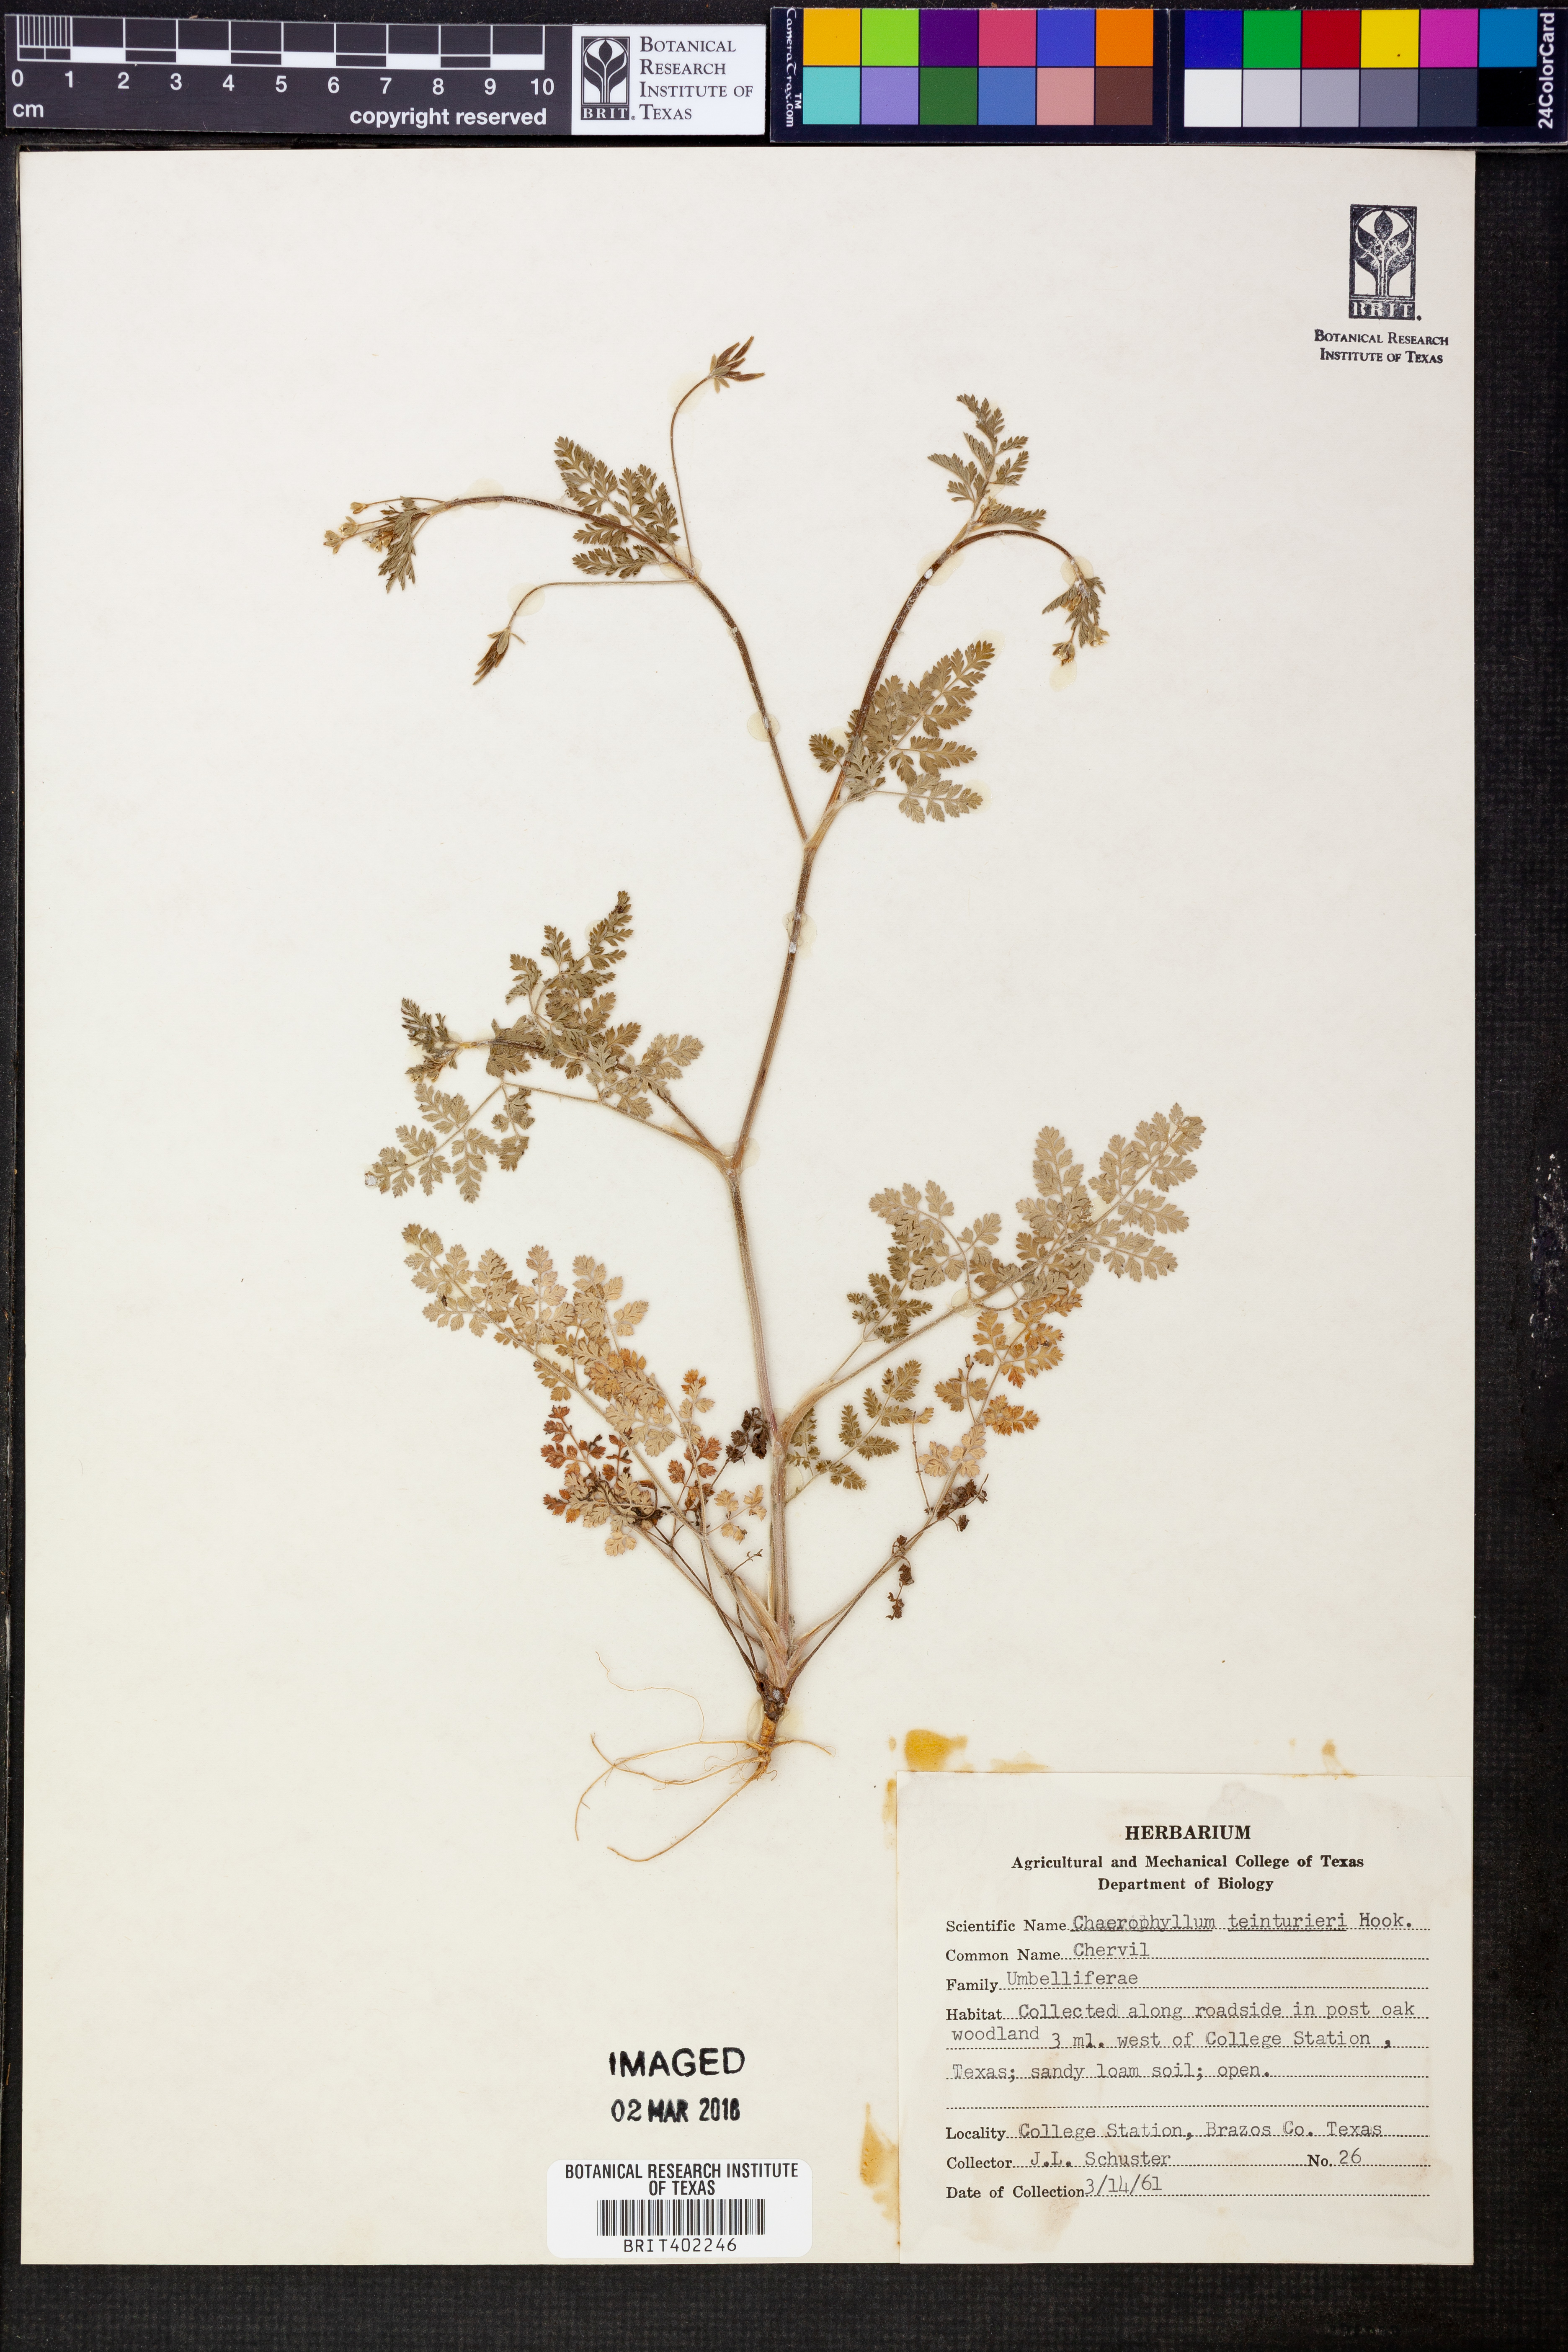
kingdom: Plantae
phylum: Tracheophyta
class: Magnoliopsida
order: Apiales
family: Apiaceae
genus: Chaerophyllum
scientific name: Chaerophyllum tainturieri
